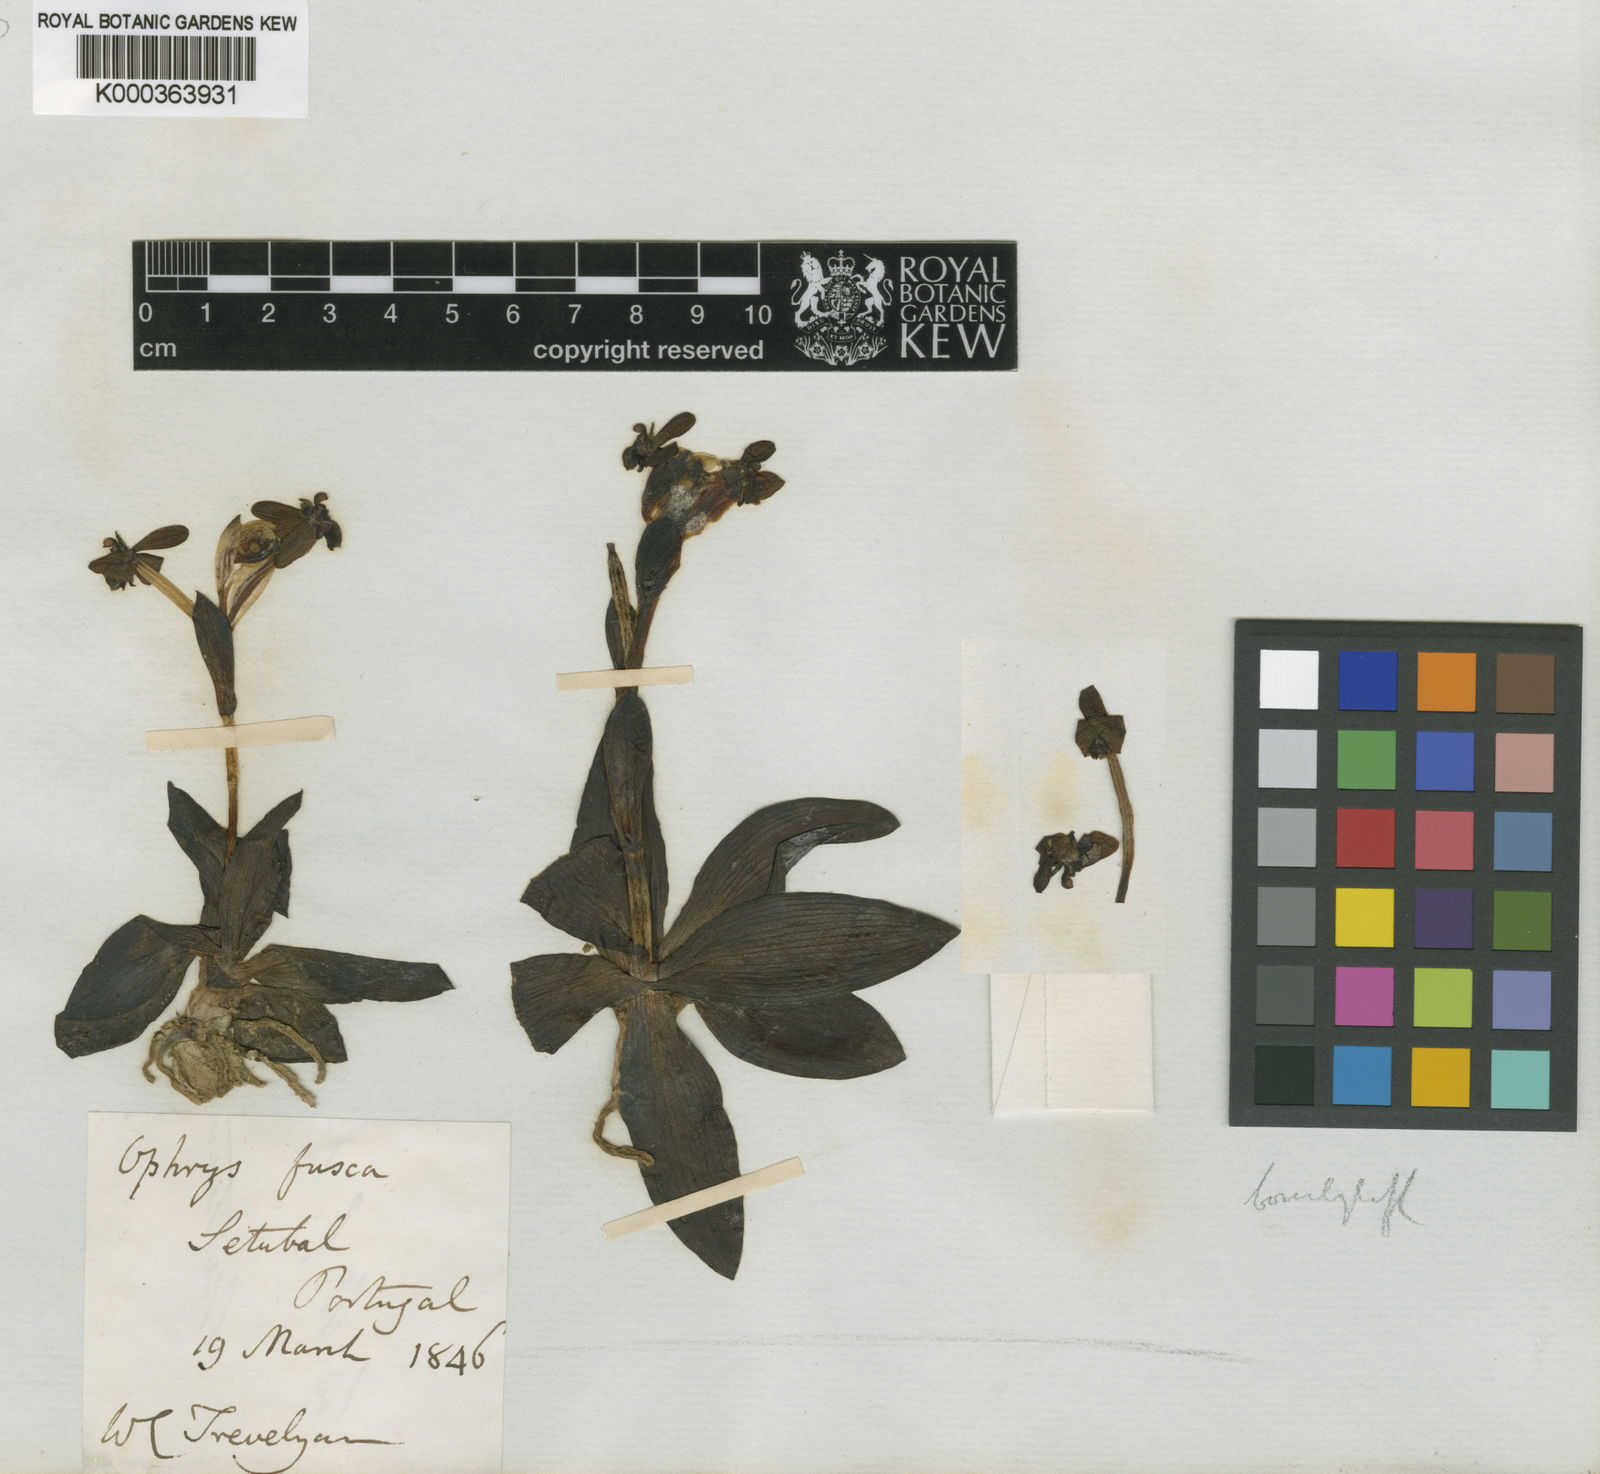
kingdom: Plantae
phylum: Tracheophyta
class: Liliopsida
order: Asparagales
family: Orchidaceae
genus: Ophrys
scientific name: Ophrys fusca
